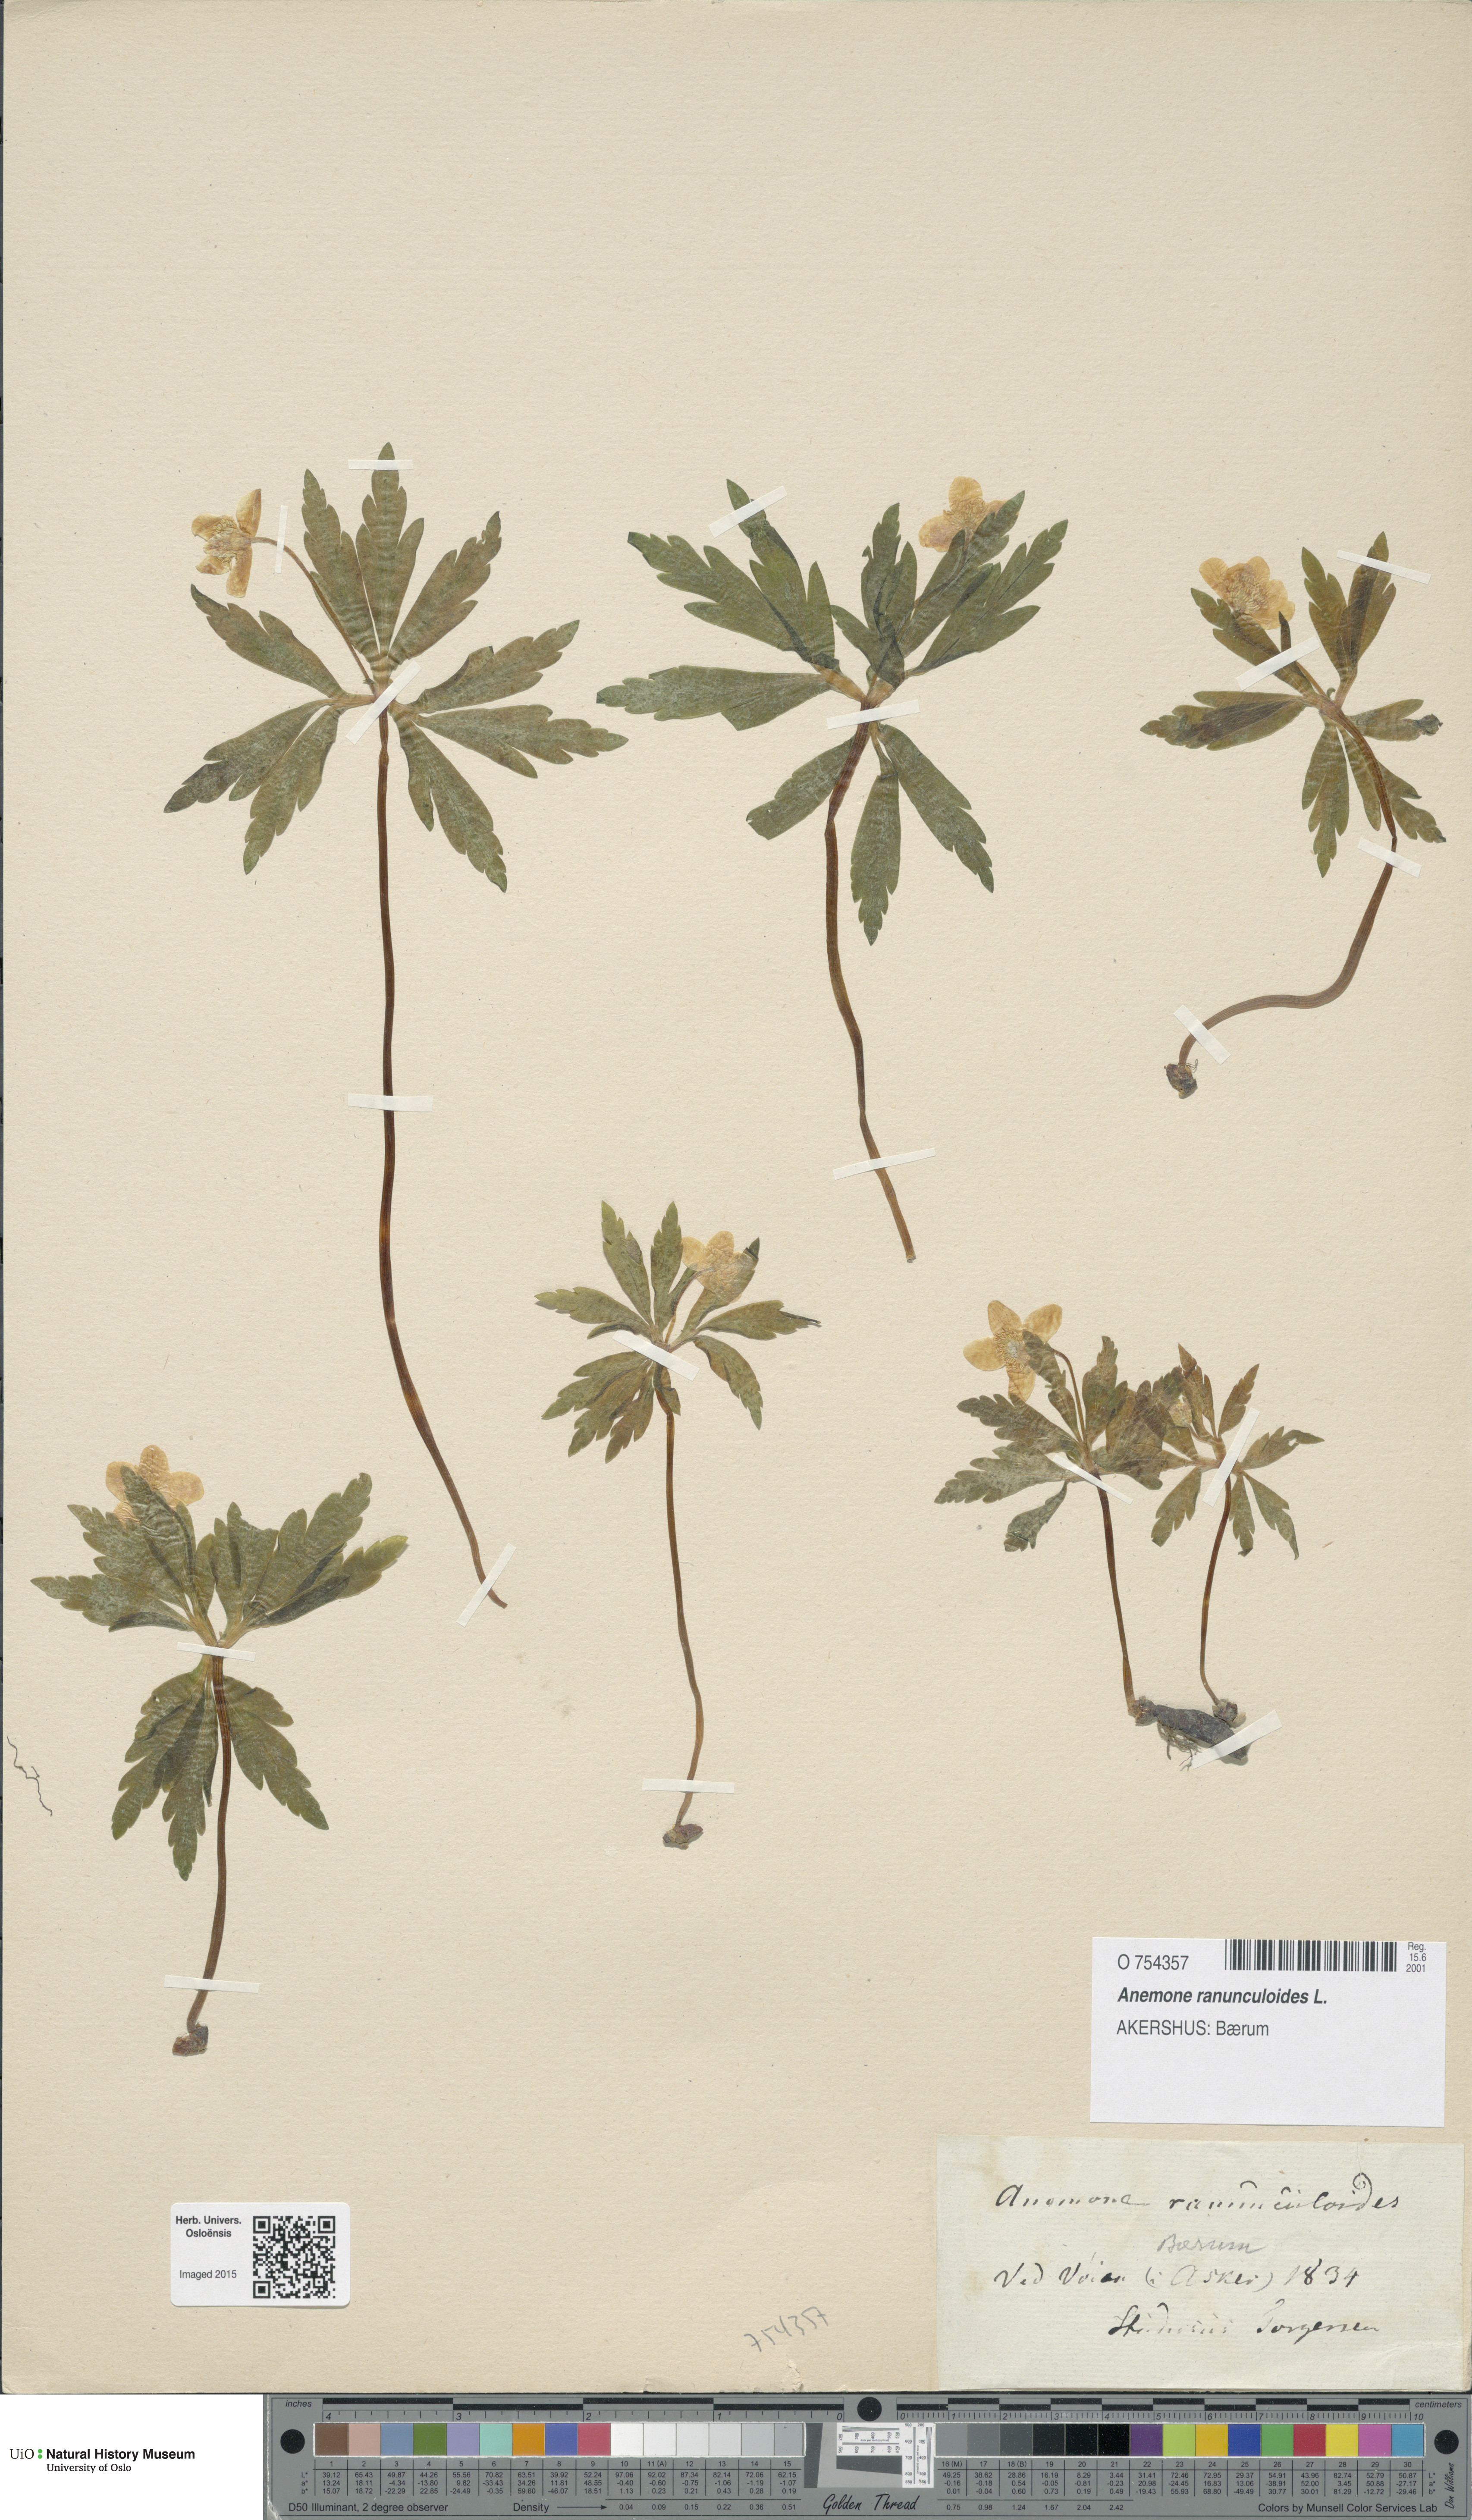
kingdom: Plantae
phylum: Tracheophyta
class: Magnoliopsida
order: Ranunculales
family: Ranunculaceae
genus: Anemone
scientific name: Anemone ranunculoides
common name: Yellow anemone
